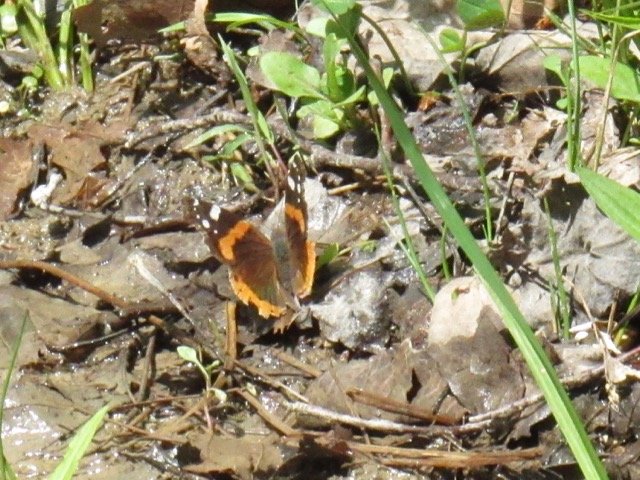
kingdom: Animalia
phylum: Arthropoda
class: Insecta
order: Lepidoptera
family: Nymphalidae
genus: Vanessa
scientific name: Vanessa atalanta
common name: Red Admiral
